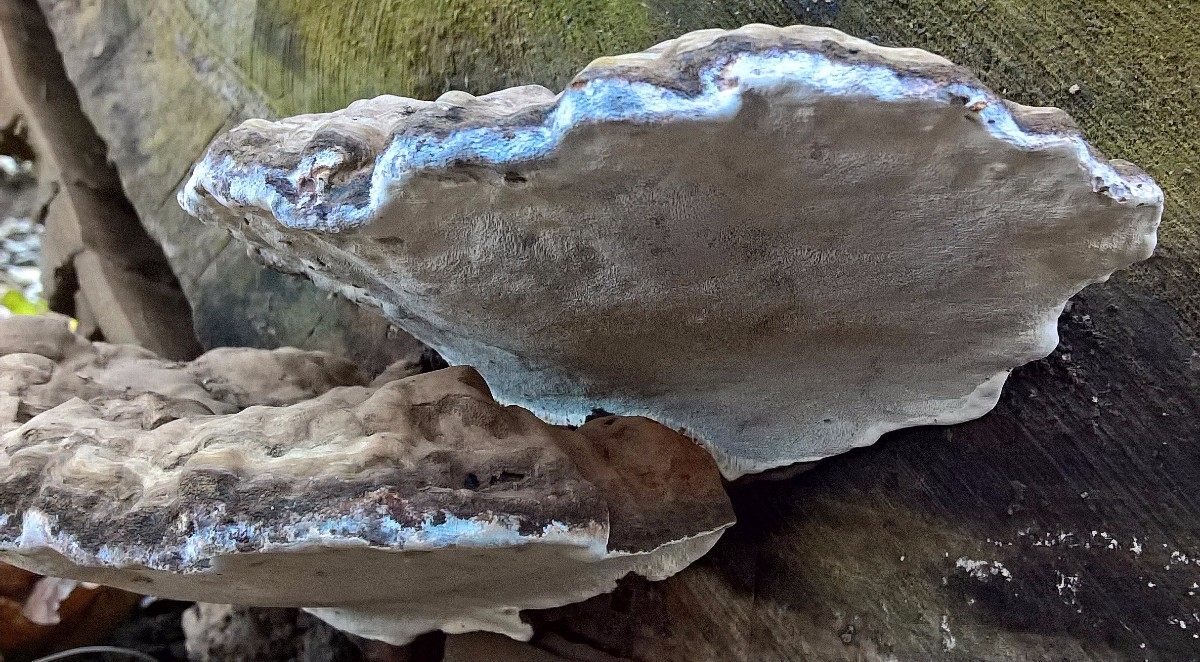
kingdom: Fungi
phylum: Basidiomycota
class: Agaricomycetes
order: Polyporales
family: Polyporaceae
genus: Ganoderma
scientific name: Ganoderma applanatum
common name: flad lakporesvamp
